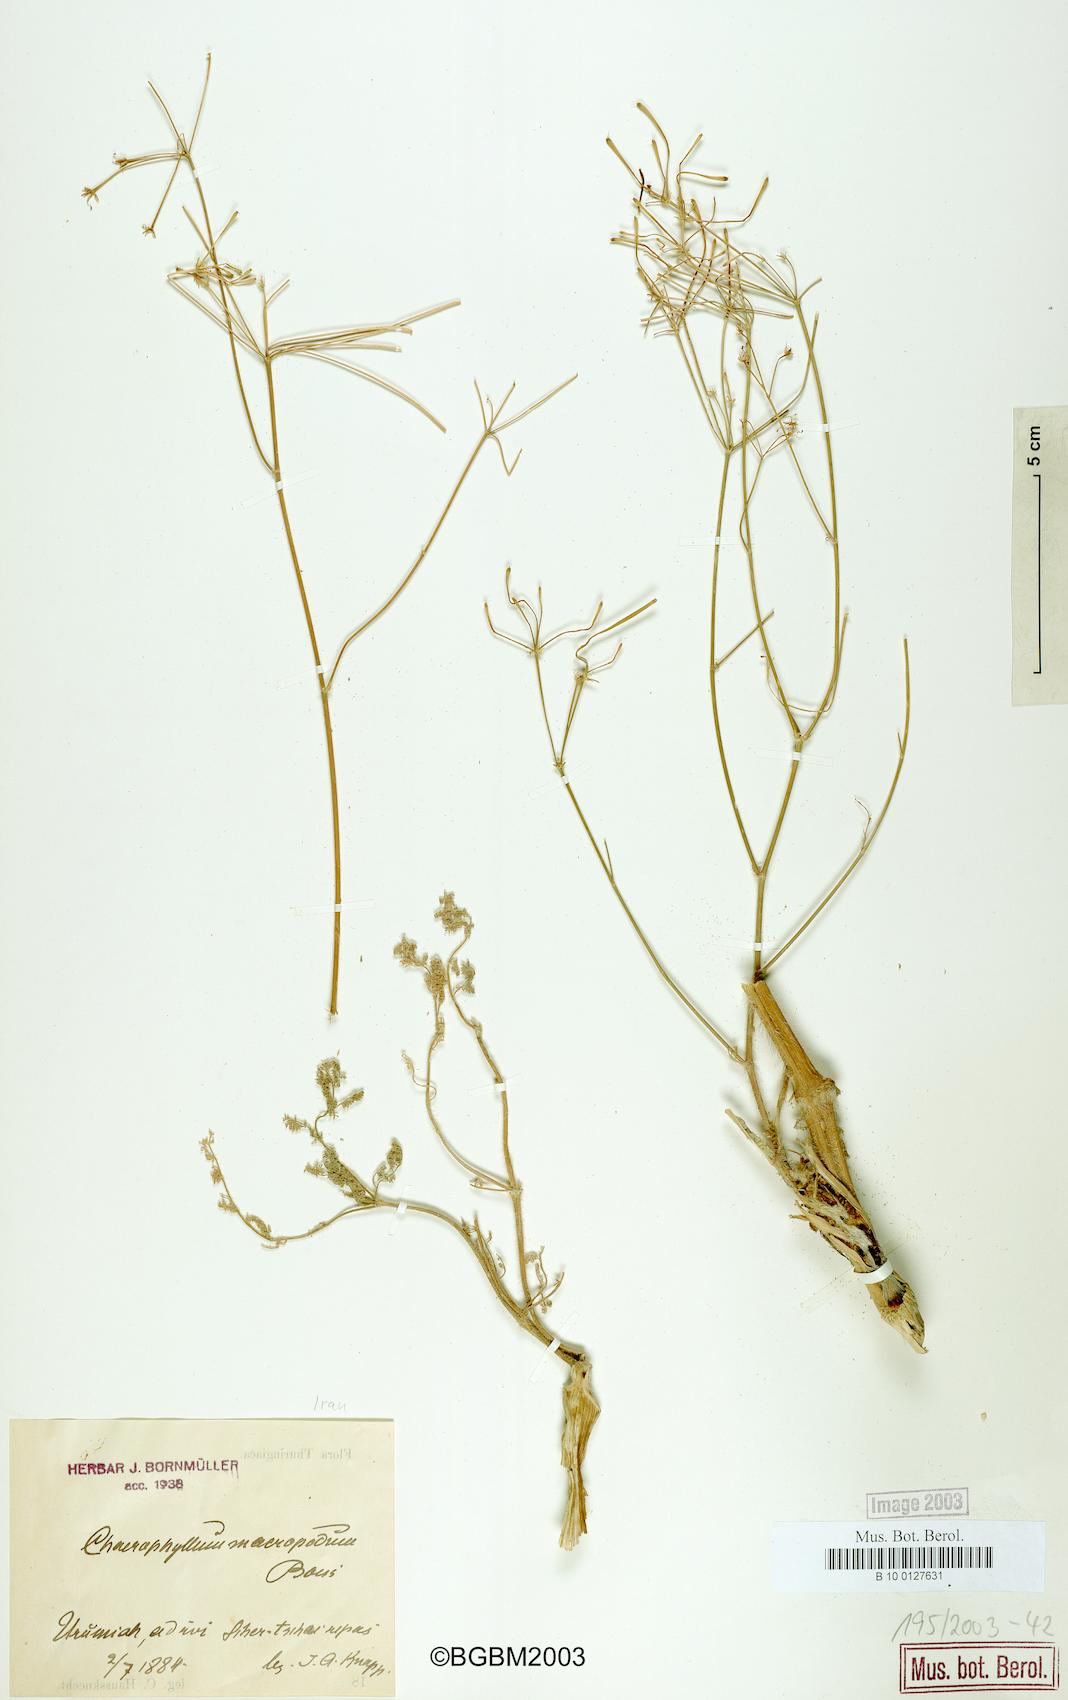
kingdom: Plantae
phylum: Tracheophyta
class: Magnoliopsida
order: Apiales
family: Apiaceae
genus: Chaerophyllum
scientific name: Chaerophyllum macropodum
